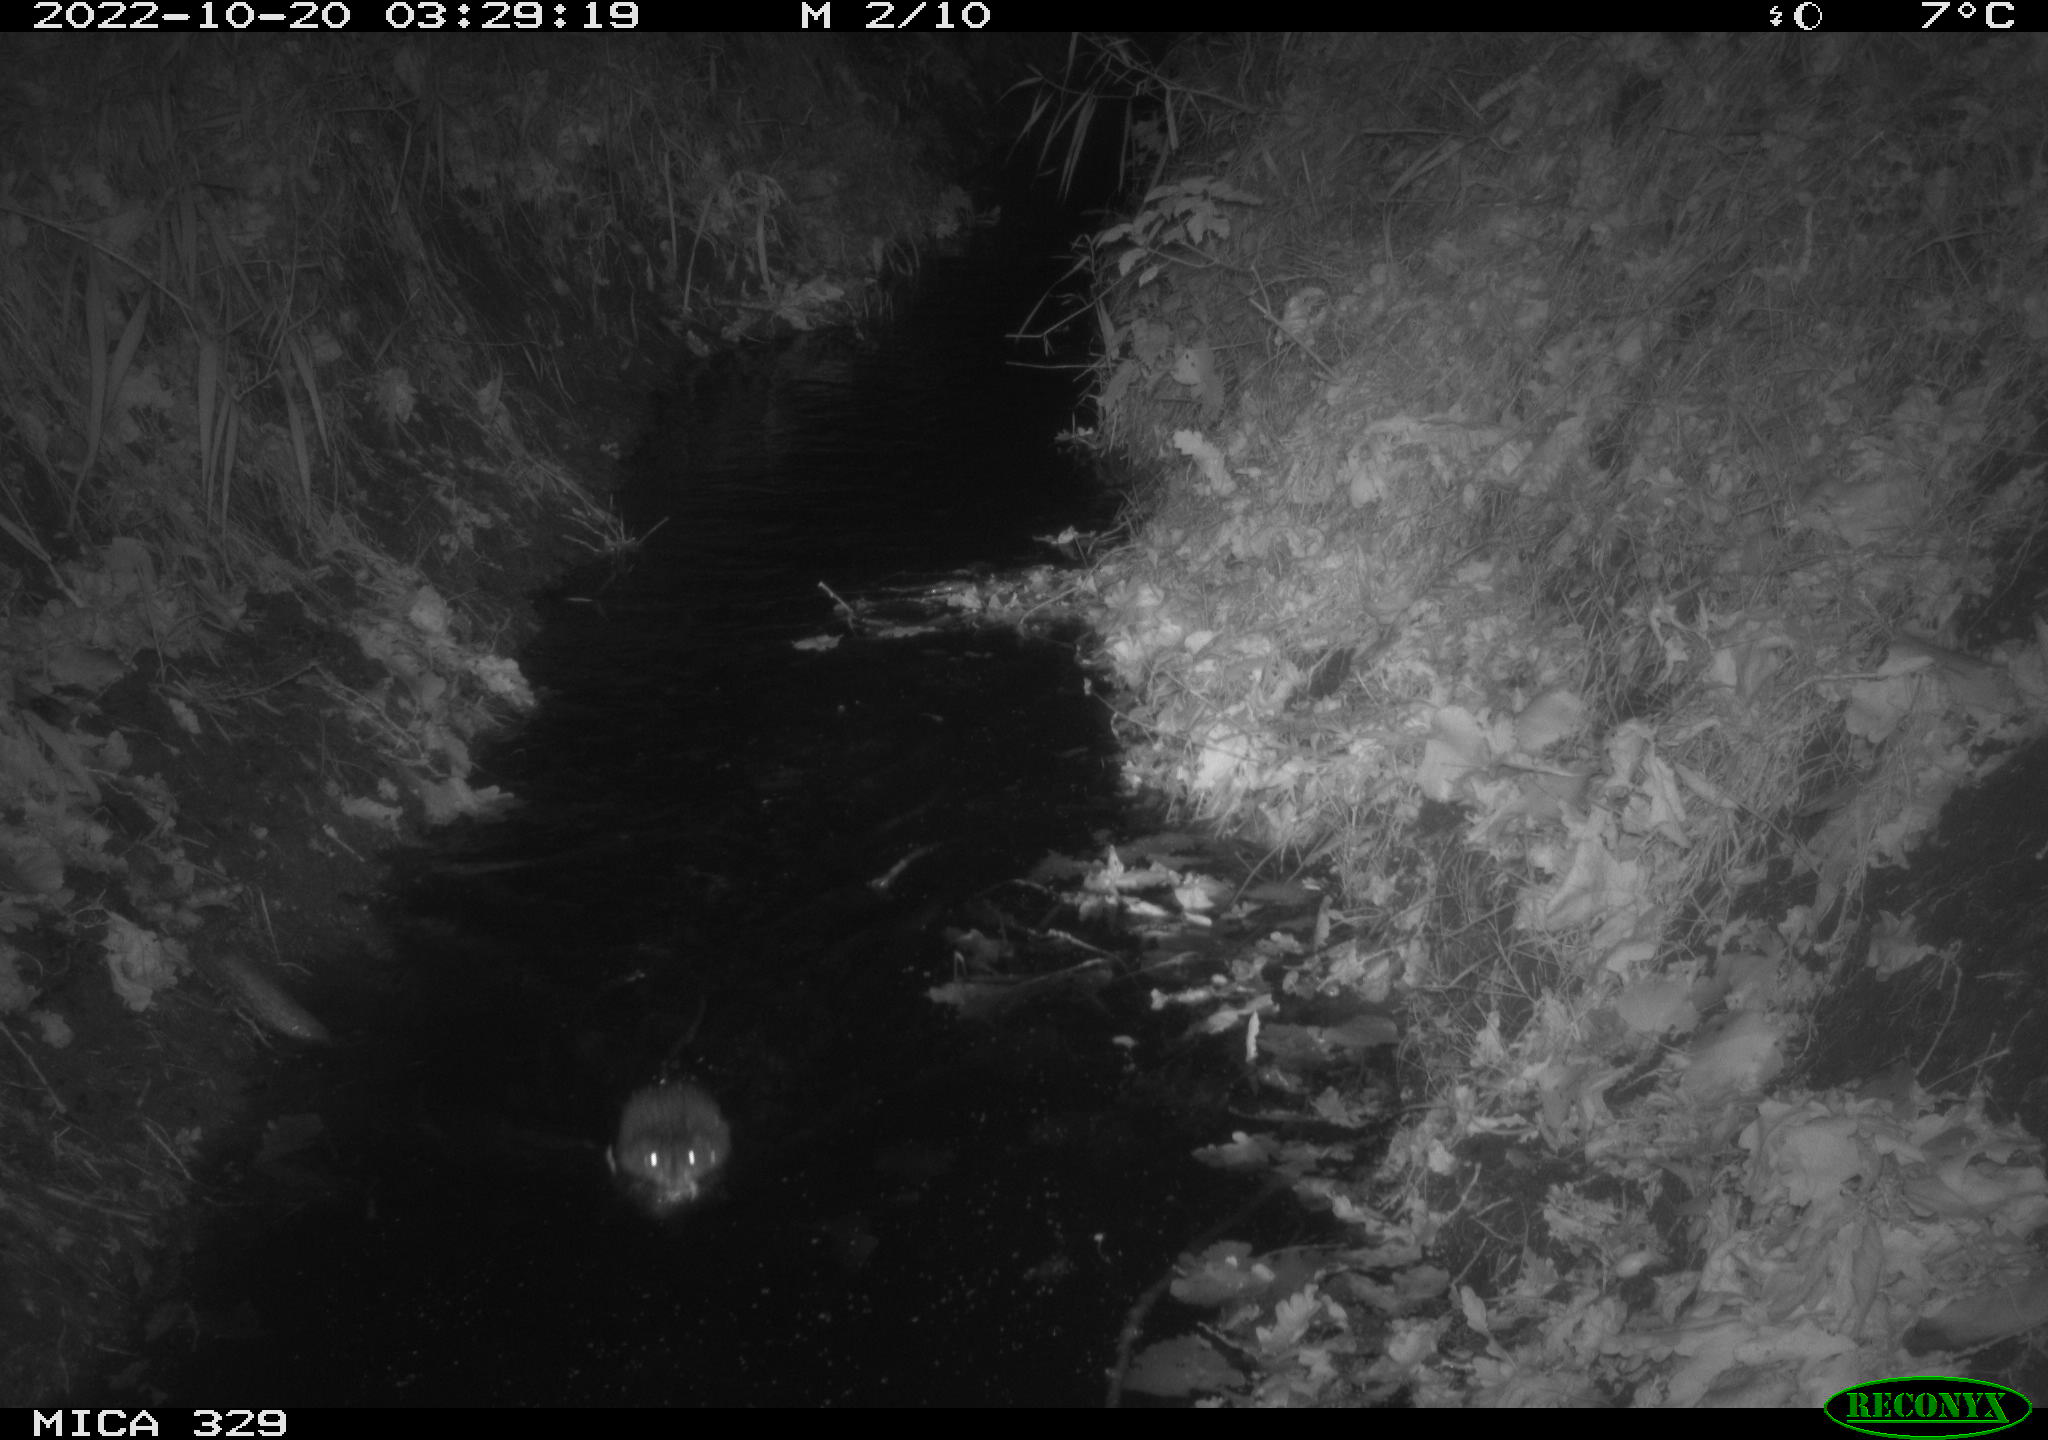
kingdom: Animalia
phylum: Chordata
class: Mammalia
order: Rodentia
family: Cricetidae
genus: Ondatra
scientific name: Ondatra zibethicus
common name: Muskrat
